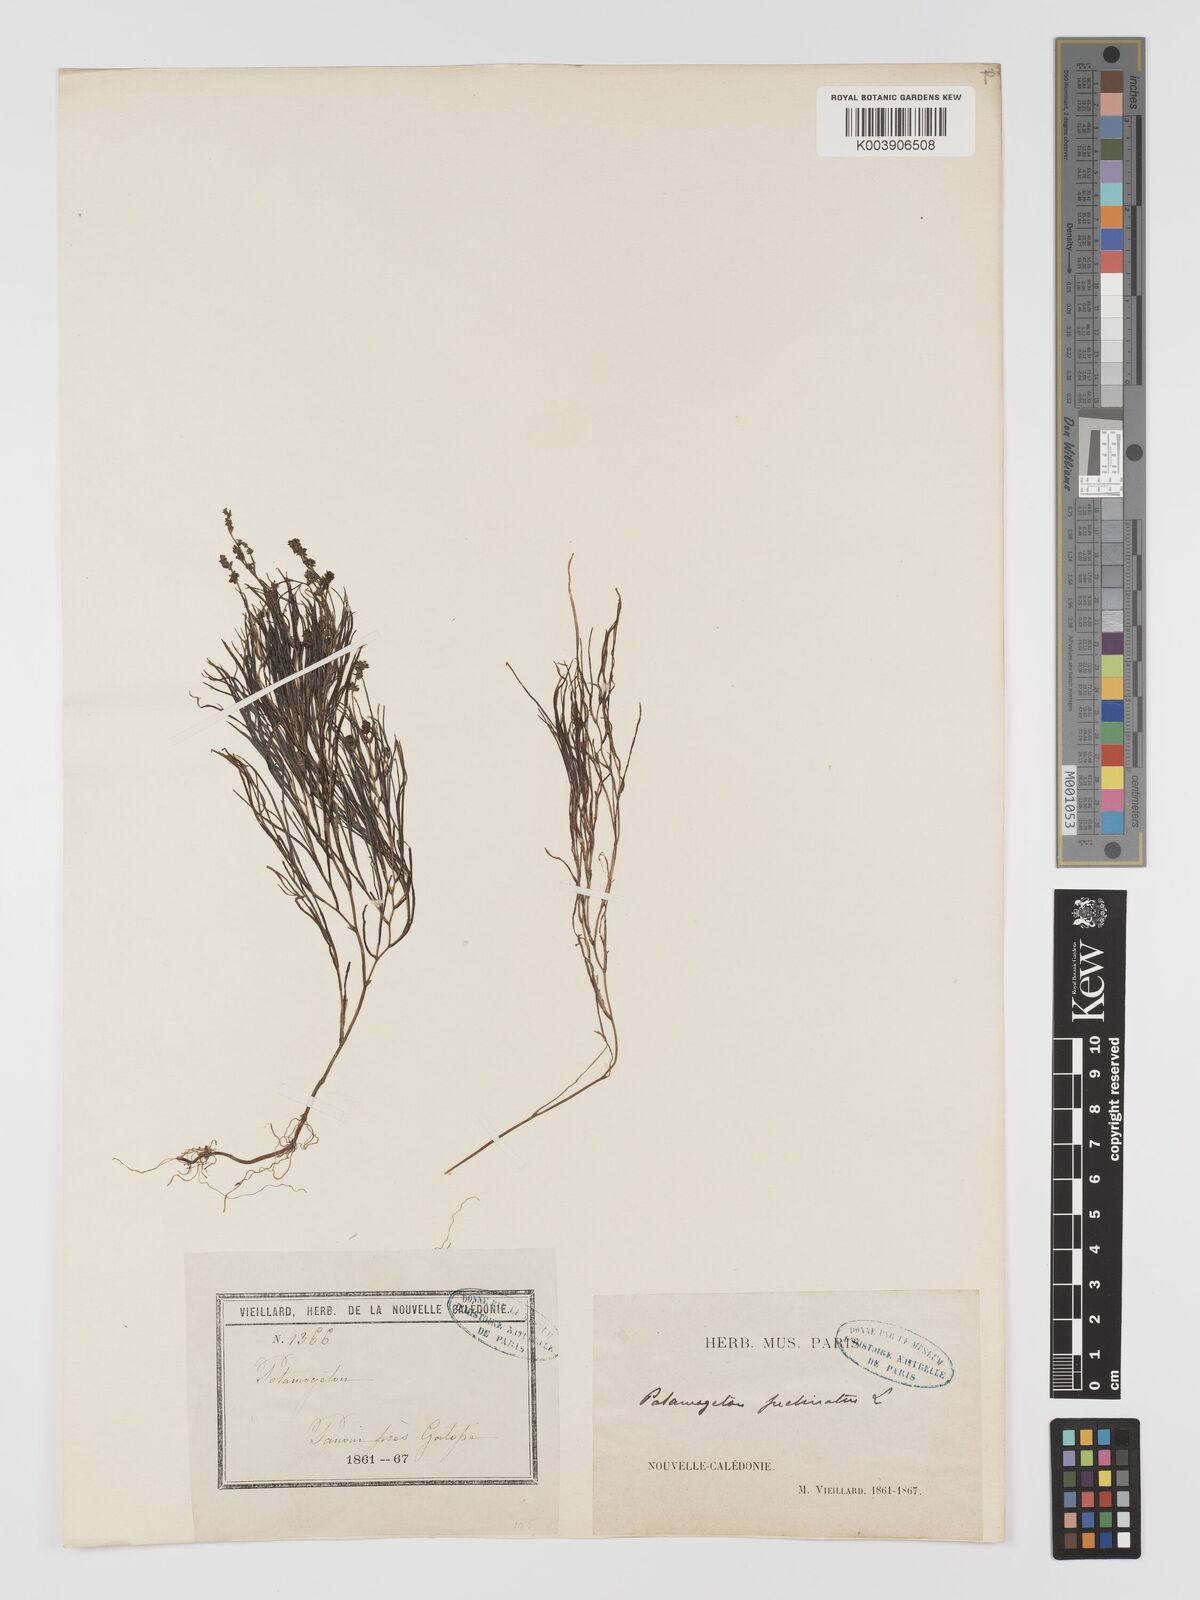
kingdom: Plantae
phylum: Tracheophyta
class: Liliopsida
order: Alismatales
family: Potamogetonaceae
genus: Stuckenia
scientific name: Stuckenia pectinata
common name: Sago pondweed
